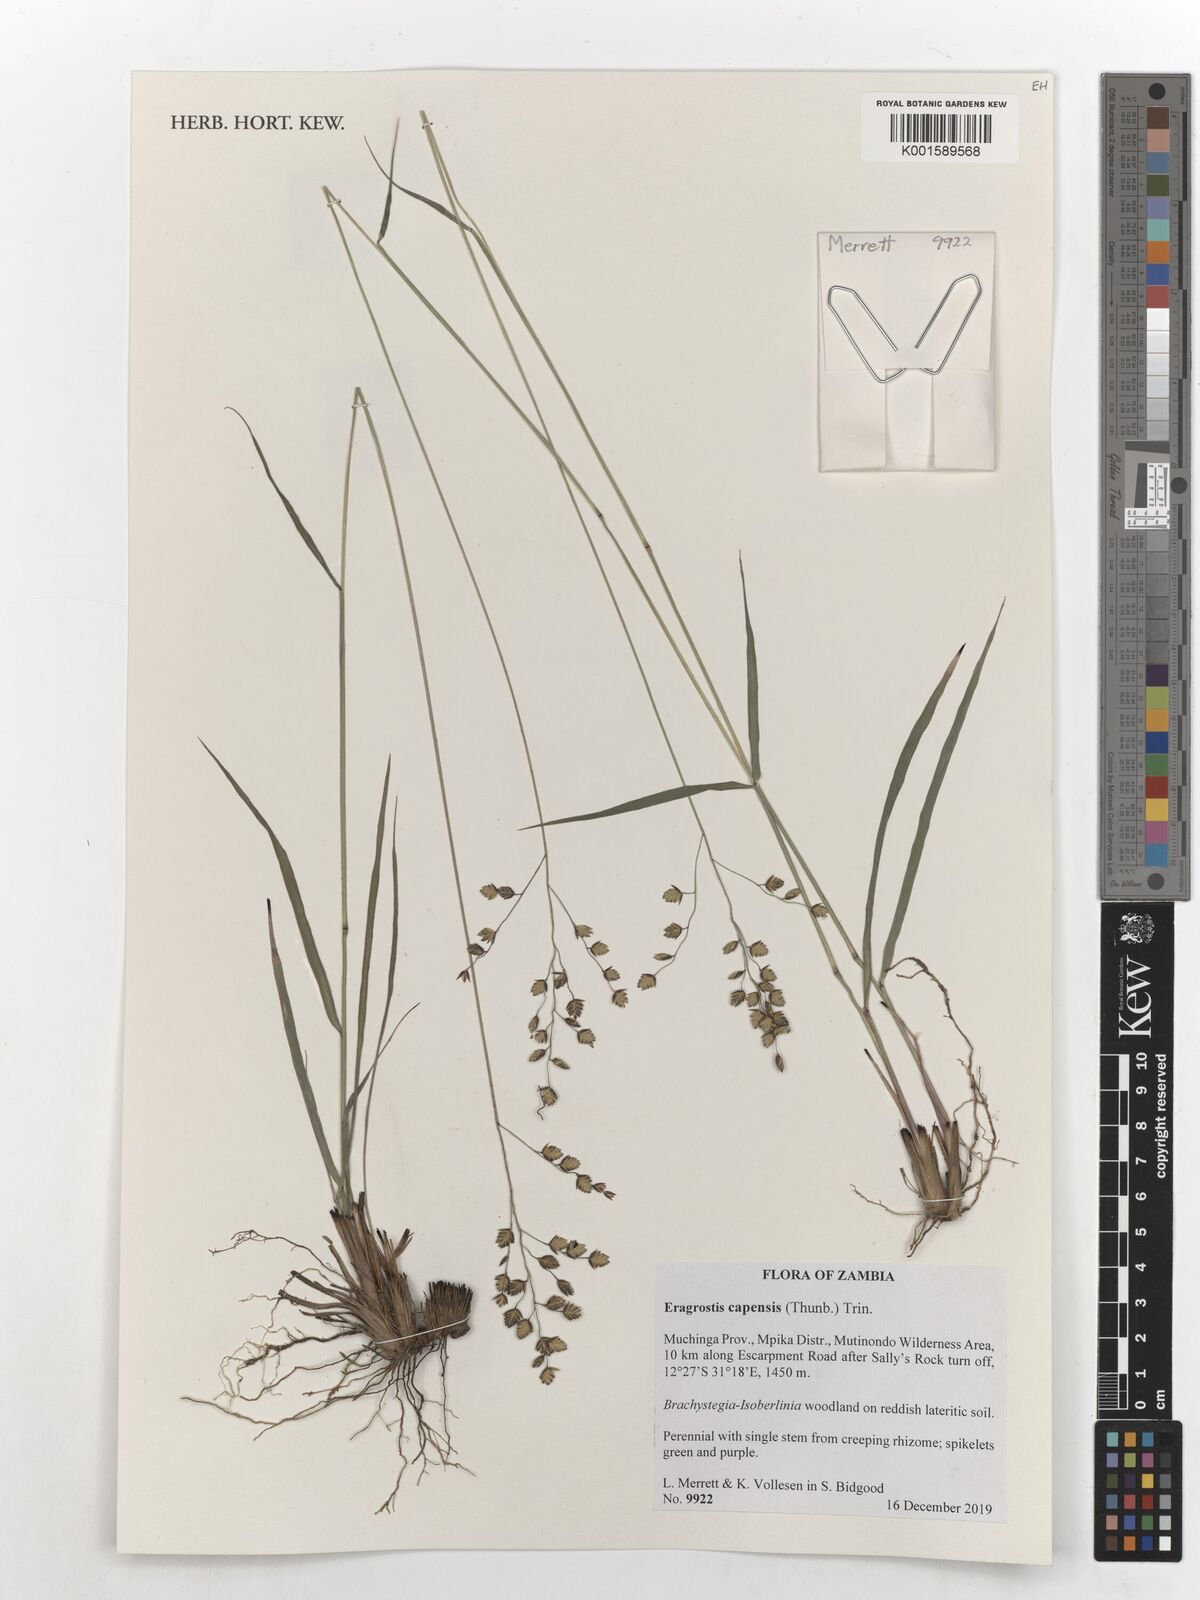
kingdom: Plantae
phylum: Tracheophyta
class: Liliopsida
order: Poales
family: Poaceae
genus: Eragrostis
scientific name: Eragrostis capensis
